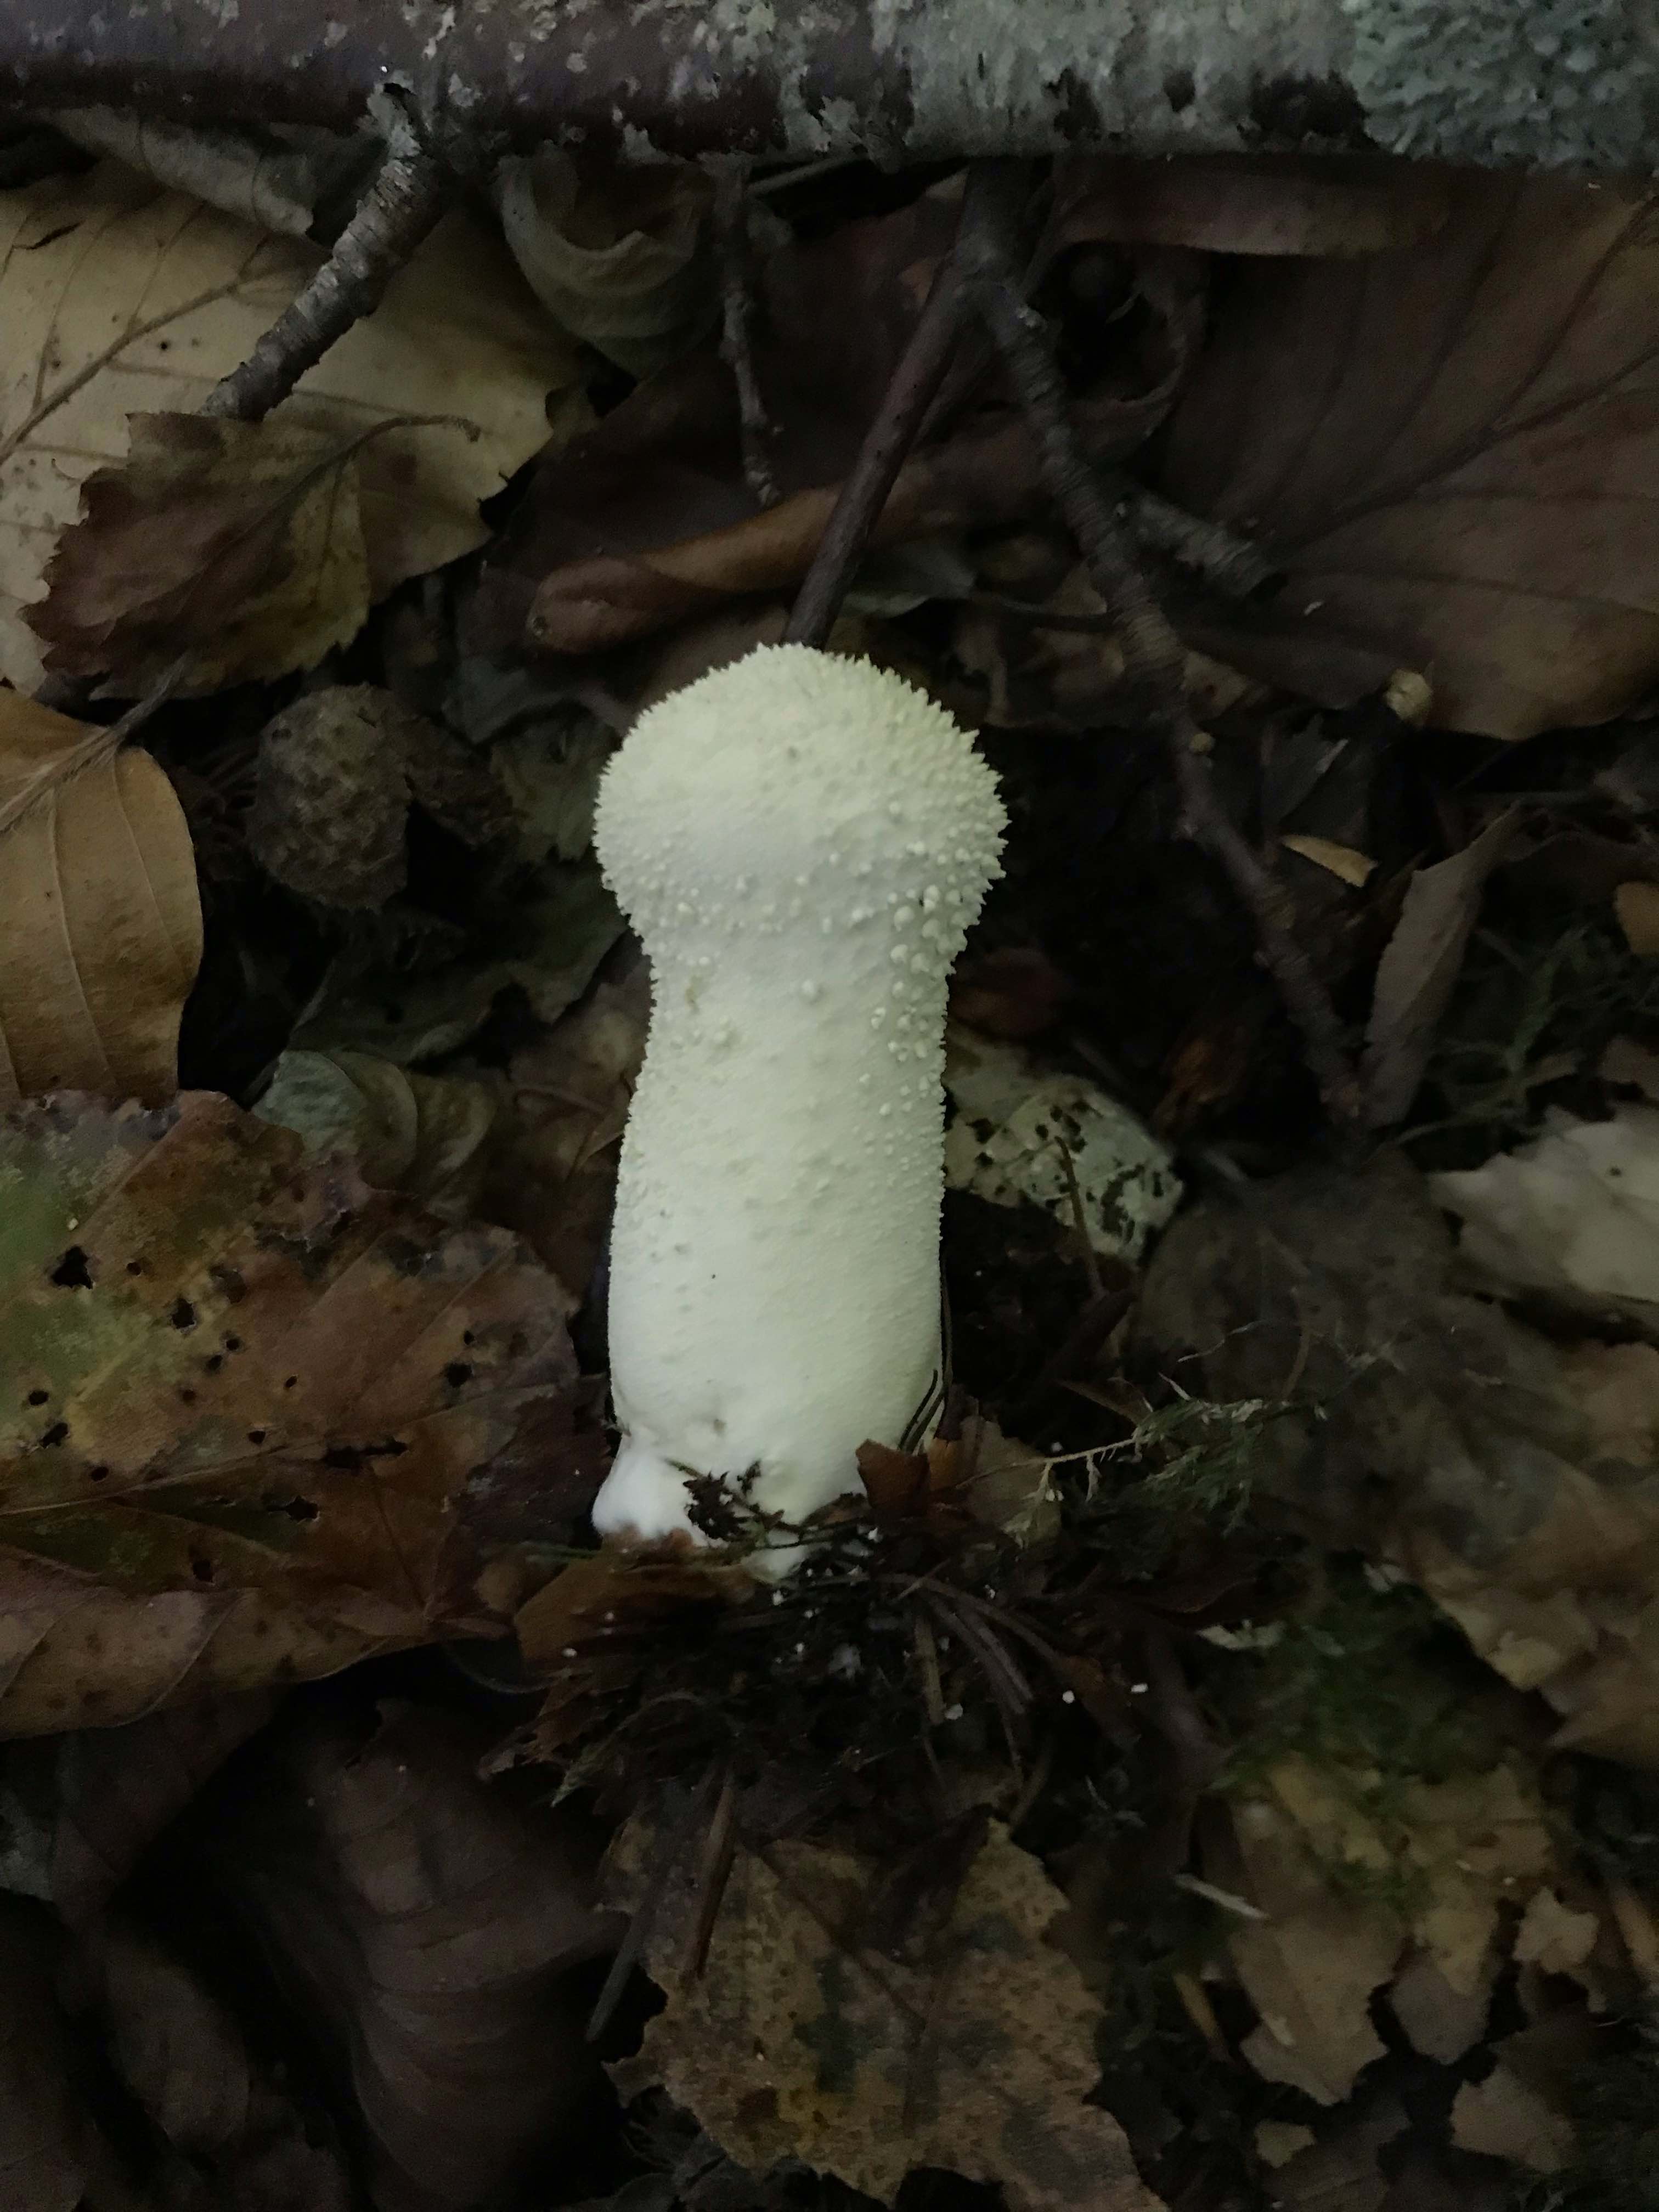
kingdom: Fungi
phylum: Basidiomycota
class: Agaricomycetes
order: Agaricales
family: Agaricaceae
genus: Lycoperdon
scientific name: Lycoperdon
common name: støvbold
